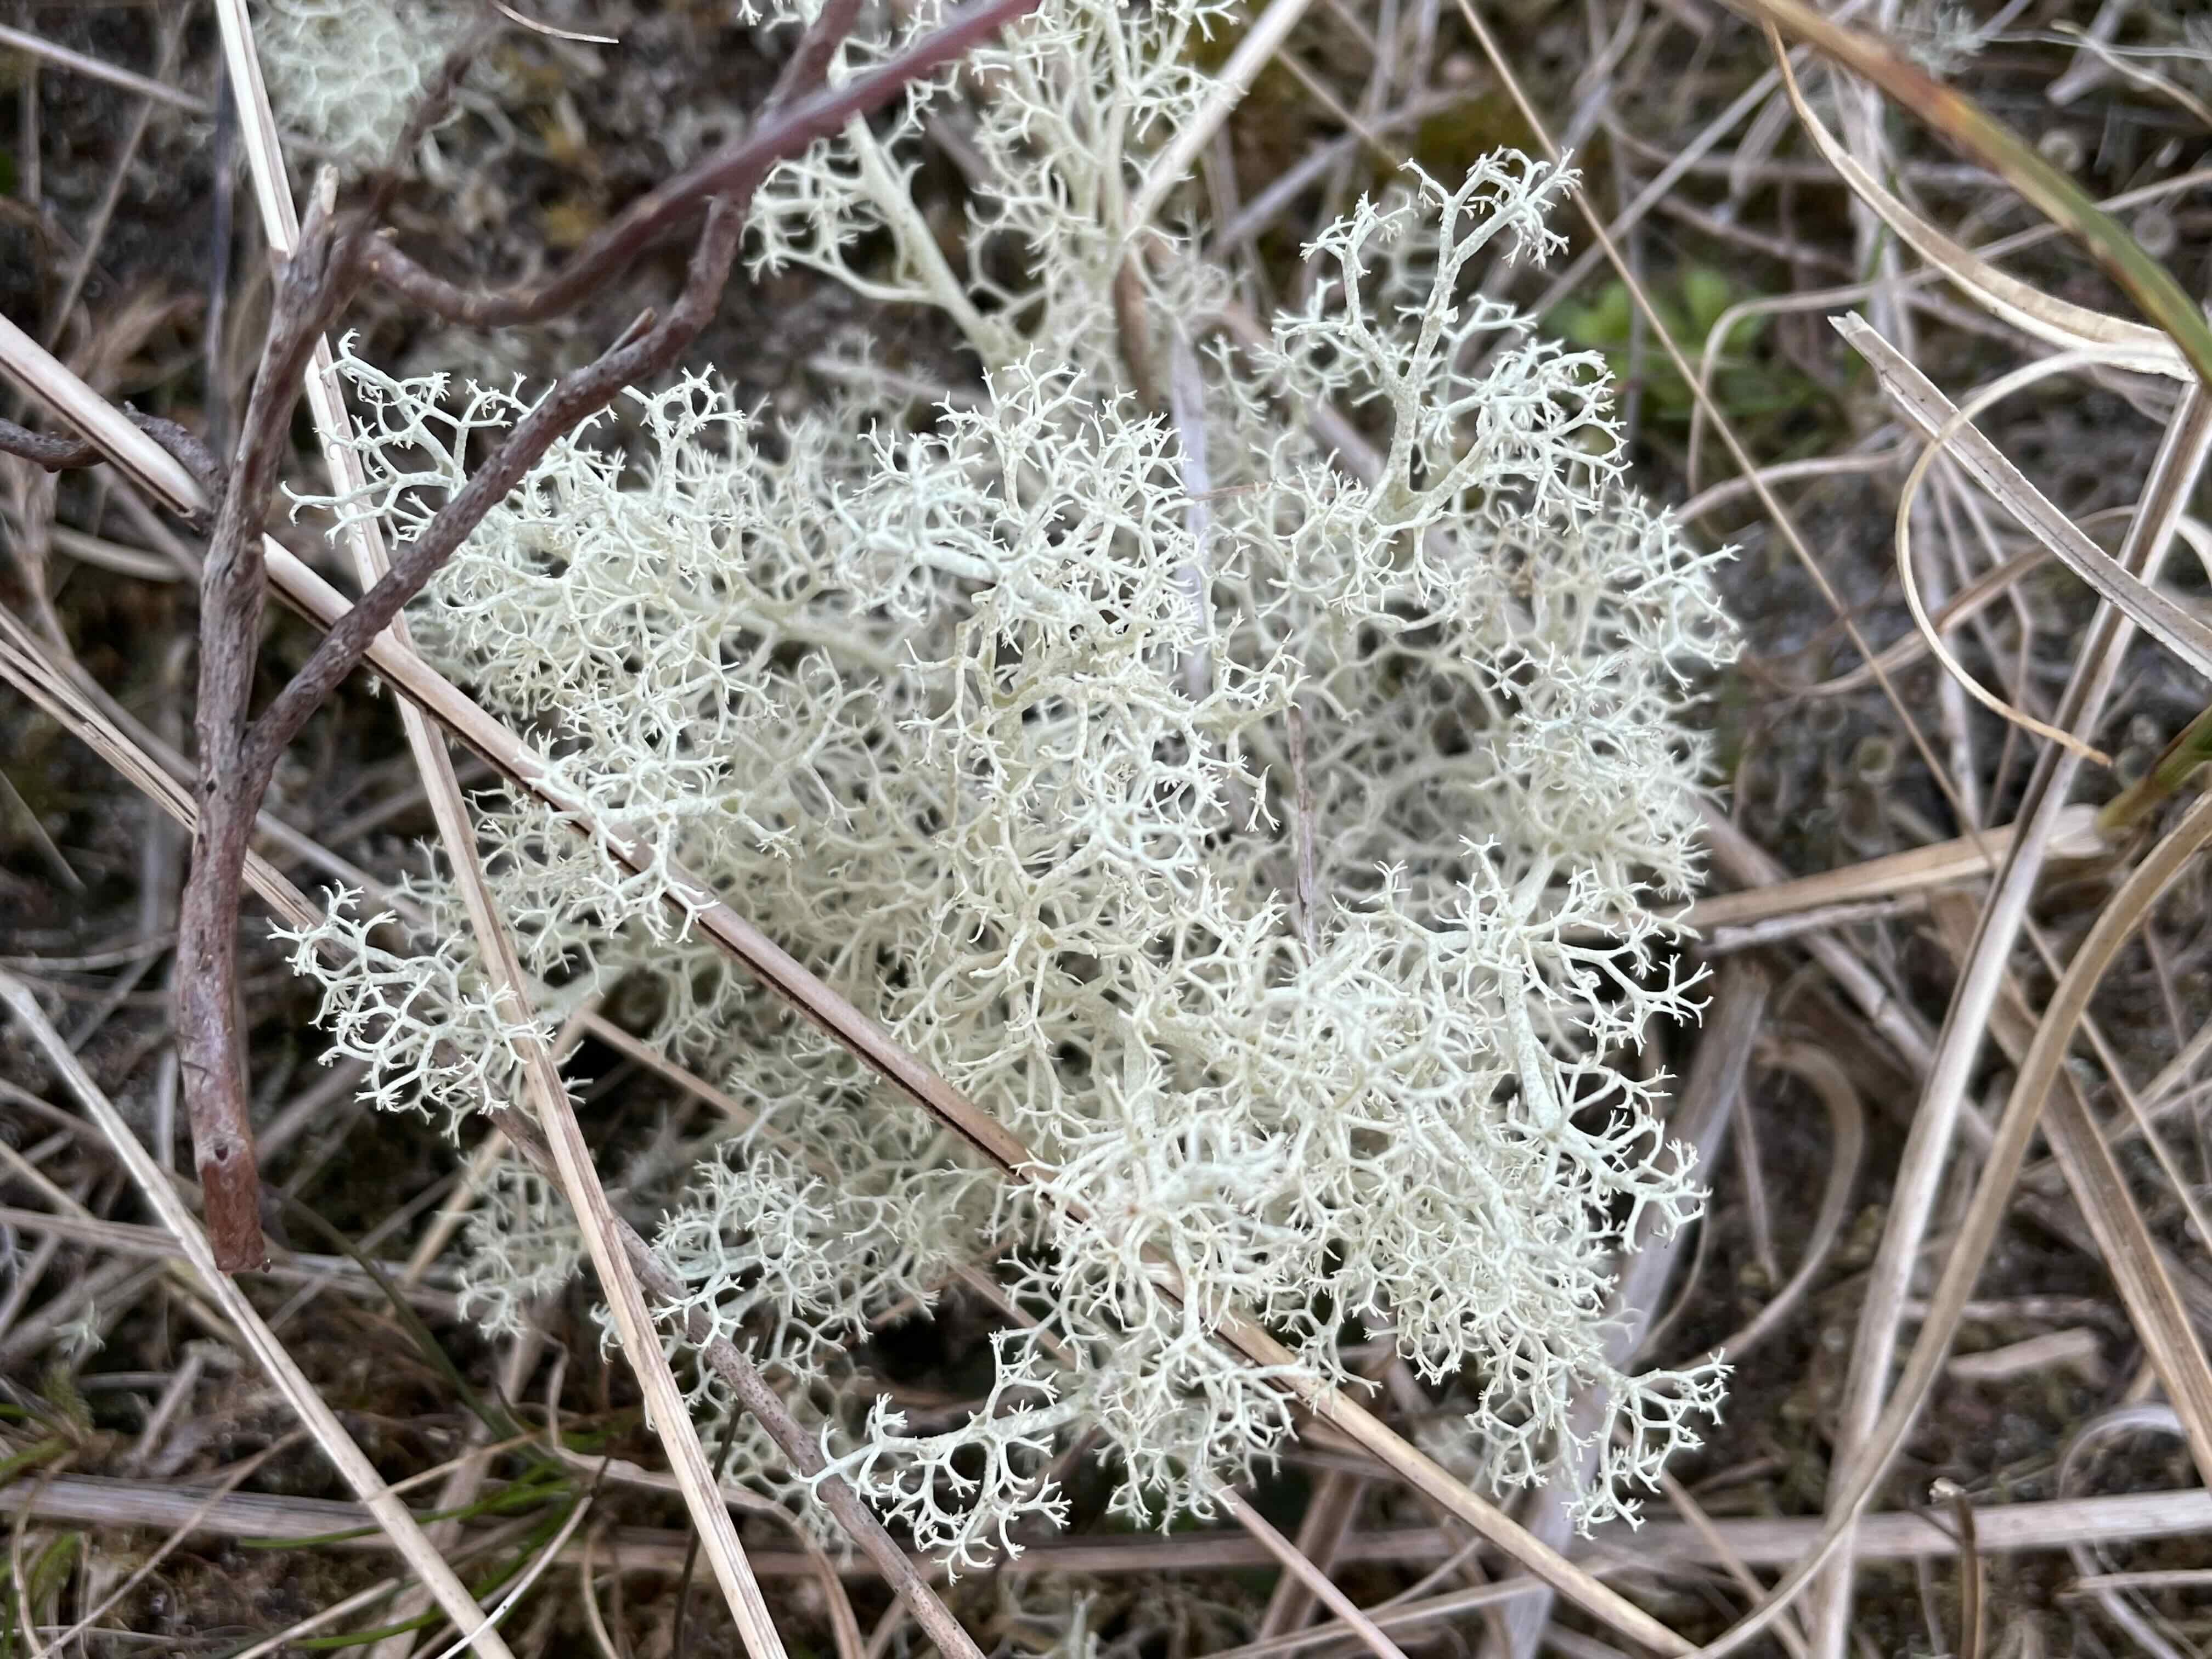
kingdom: Fungi
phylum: Ascomycota
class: Lecanoromycetes
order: Lecanorales
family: Cladoniaceae
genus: Cladonia
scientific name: Cladonia portentosa
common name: hede-rensdyrlav
